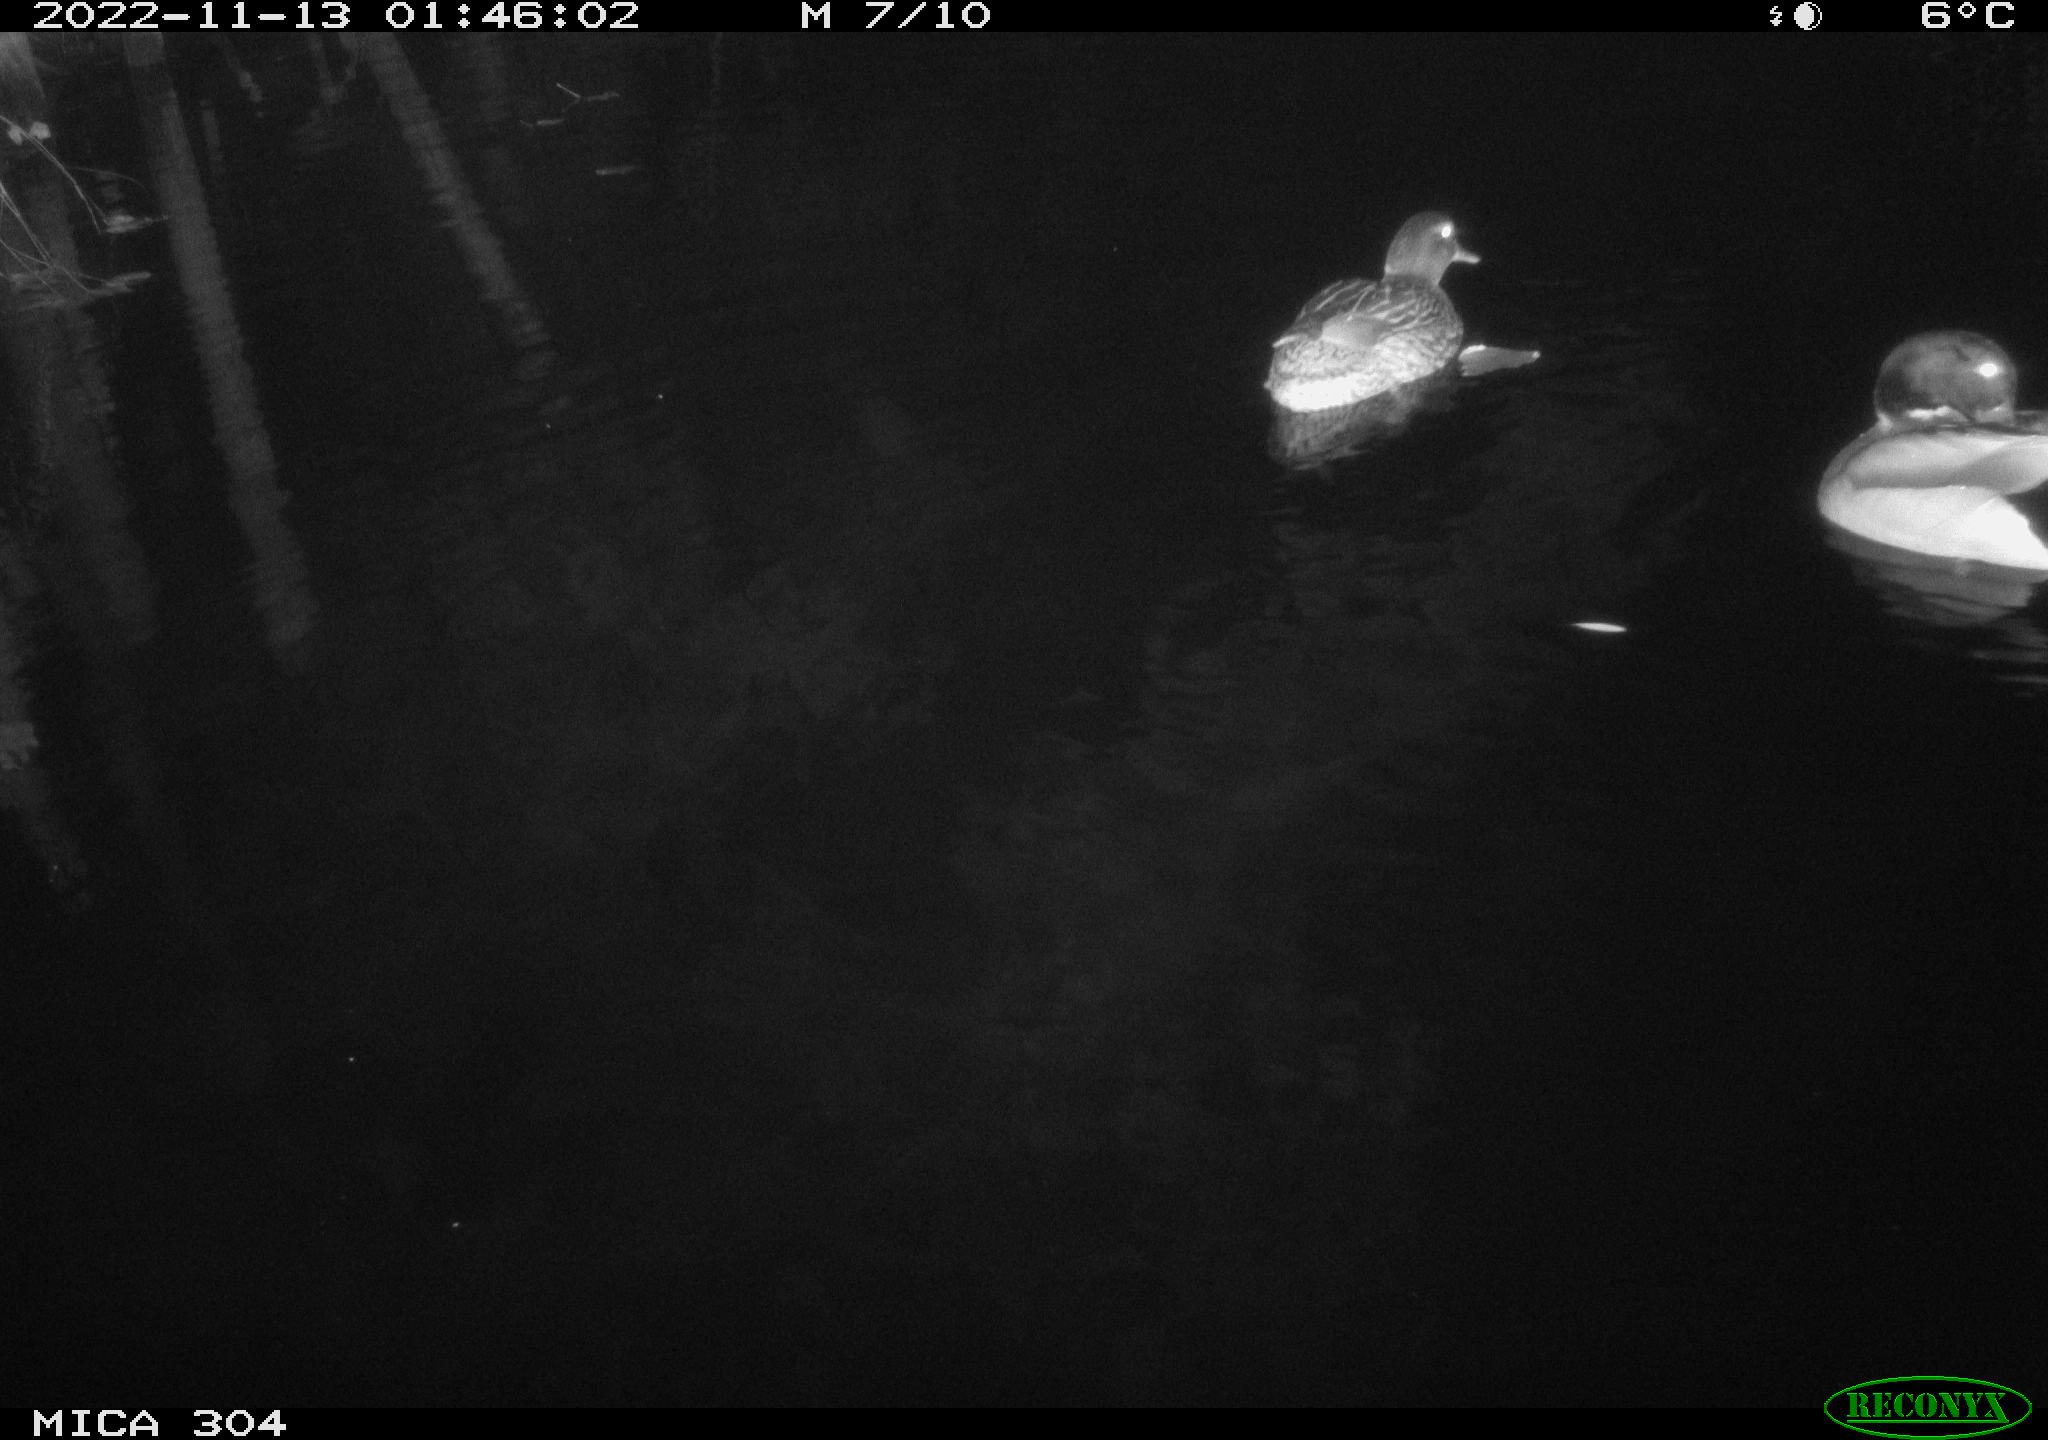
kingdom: Animalia
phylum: Chordata
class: Aves
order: Anseriformes
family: Anatidae
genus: Anas
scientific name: Anas
